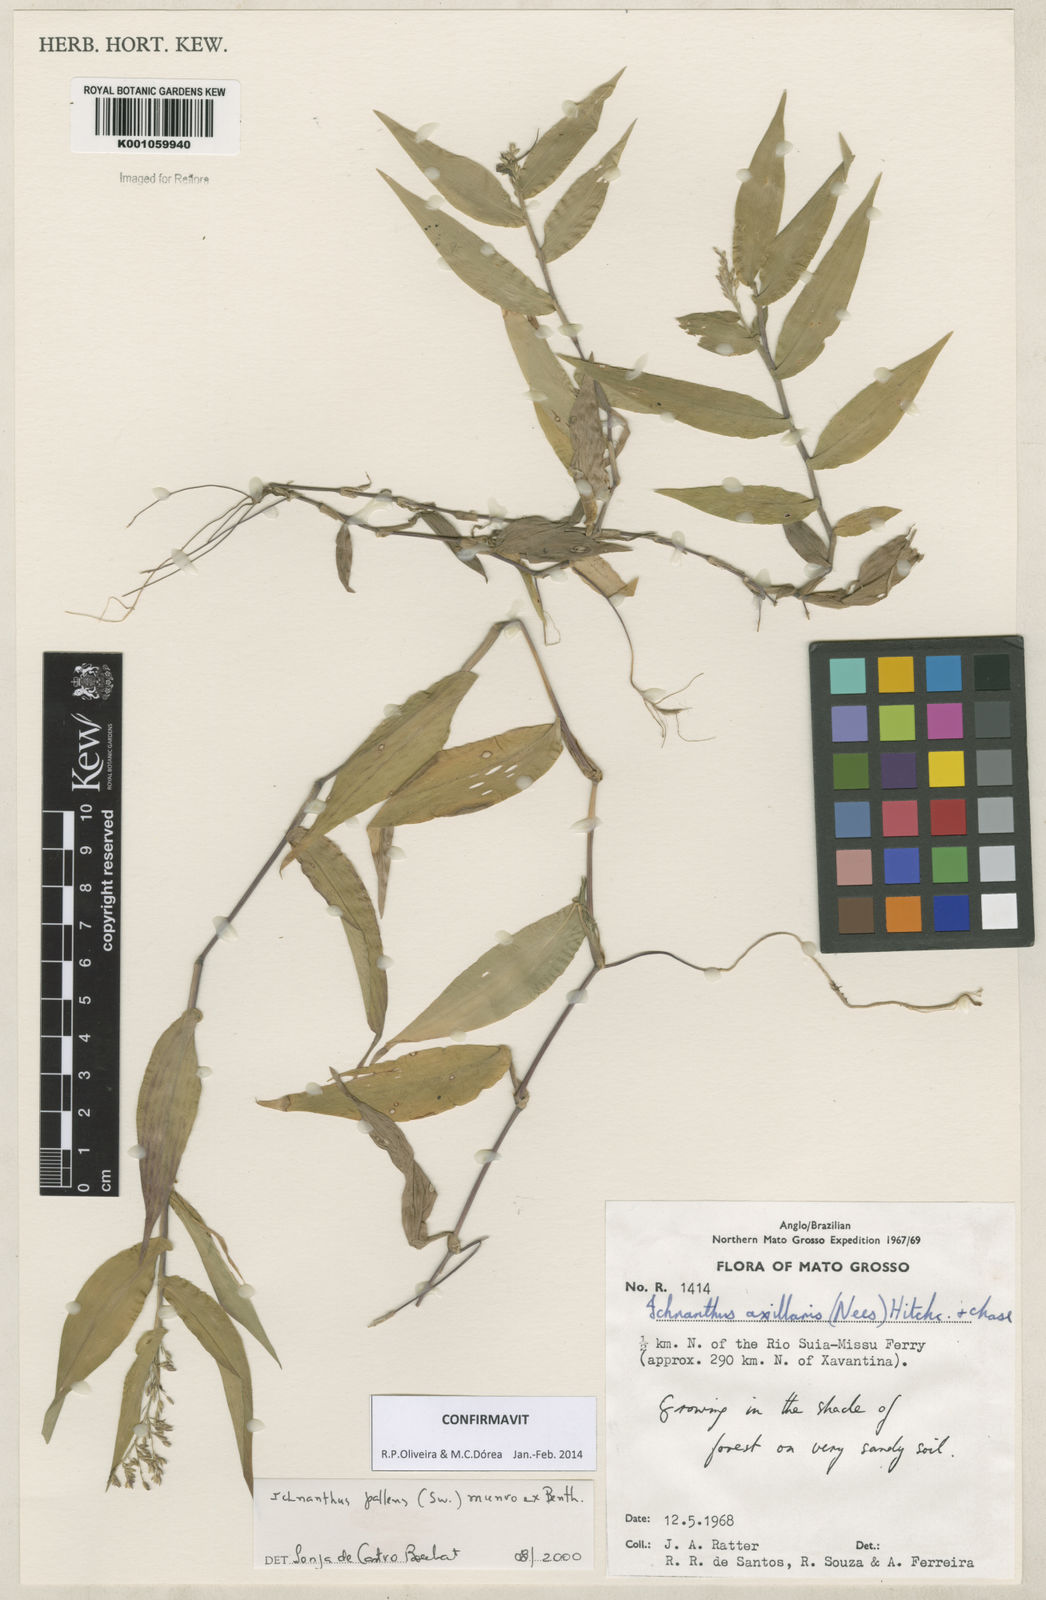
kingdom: Plantae
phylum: Tracheophyta
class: Liliopsida
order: Poales
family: Poaceae
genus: Ichnanthus
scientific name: Ichnanthus pallens
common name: Water grass
